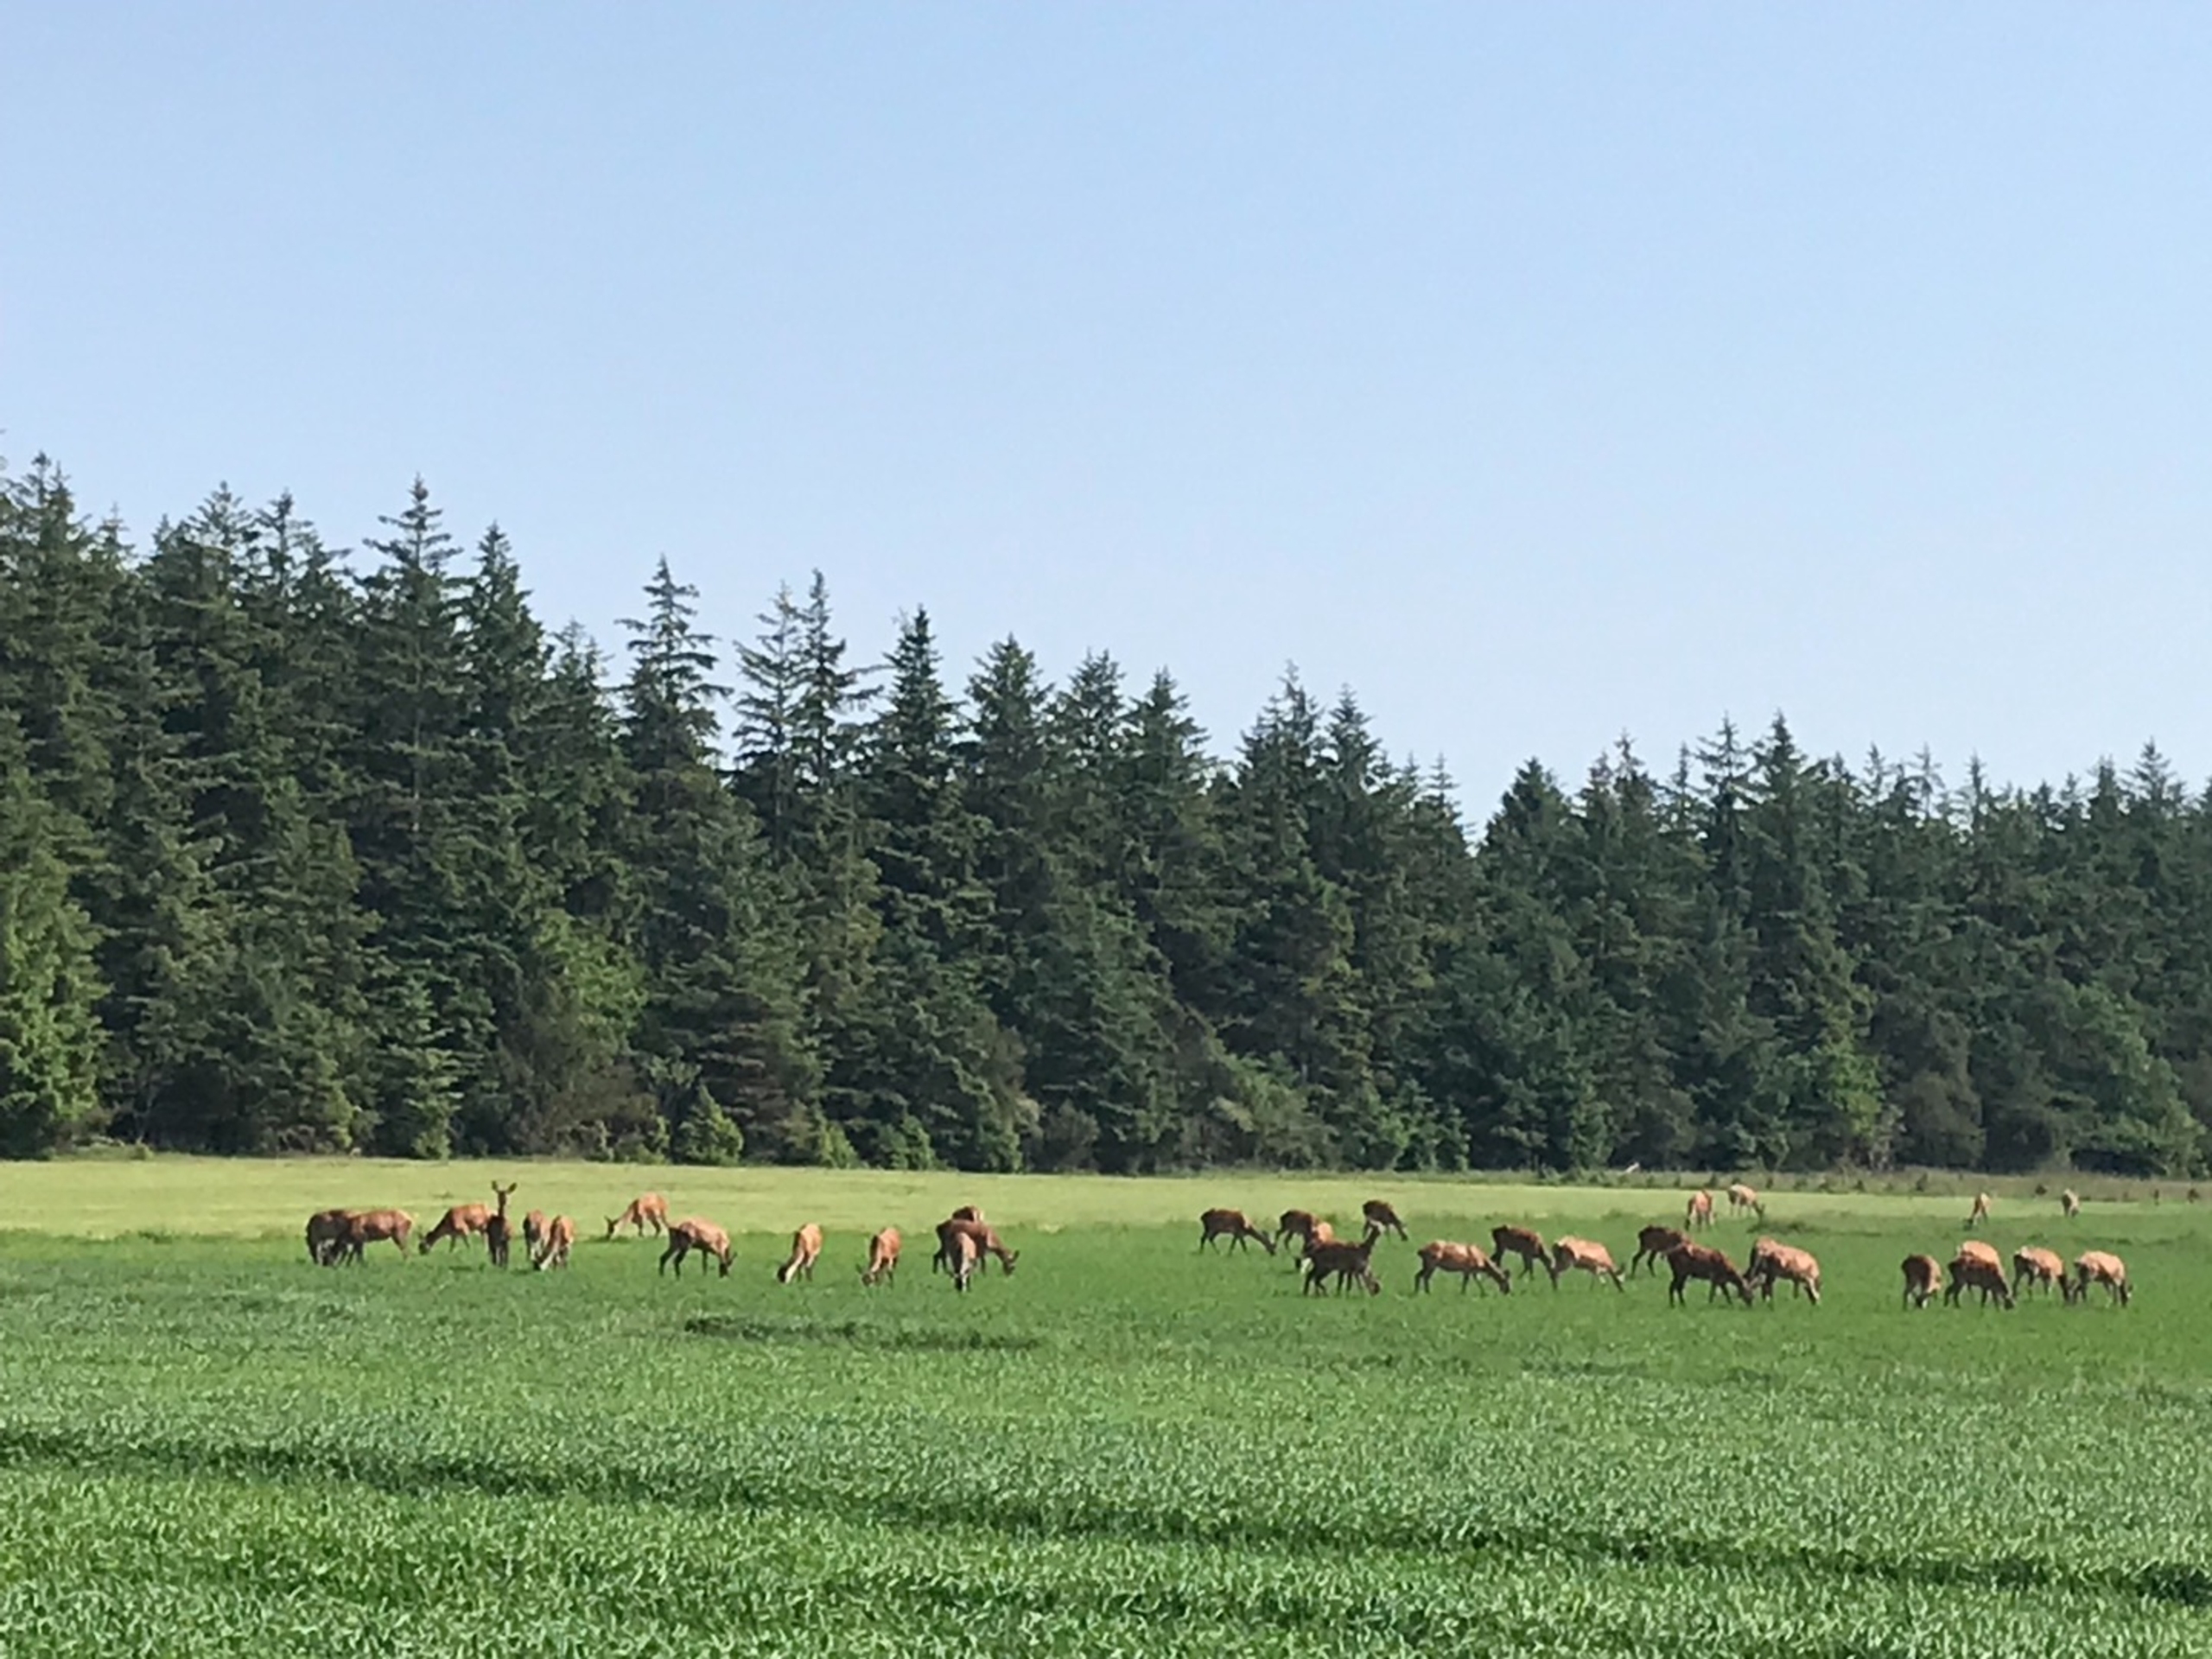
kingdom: Animalia
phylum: Chordata
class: Mammalia
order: Artiodactyla
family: Cervidae
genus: Cervus
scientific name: Cervus elaphus
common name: Krondyr
